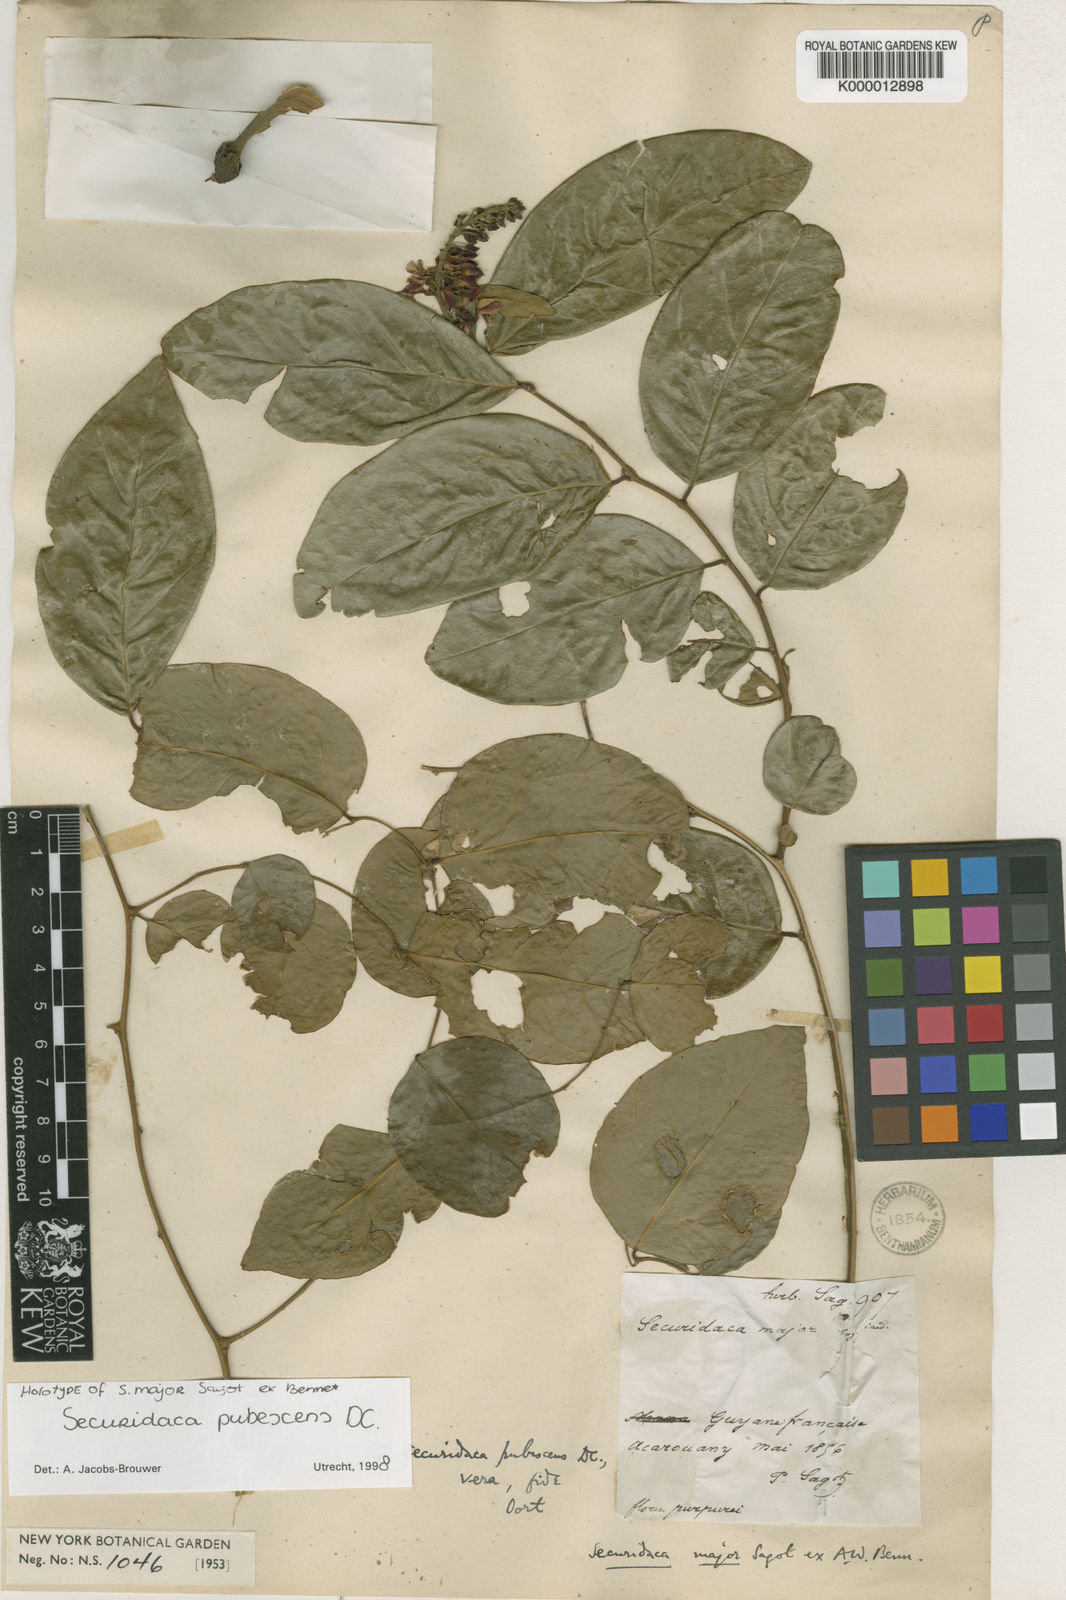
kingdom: Plantae
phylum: Tracheophyta
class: Magnoliopsida
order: Fabales
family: Polygalaceae
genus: Securidaca
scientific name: Securidaca pubescens
